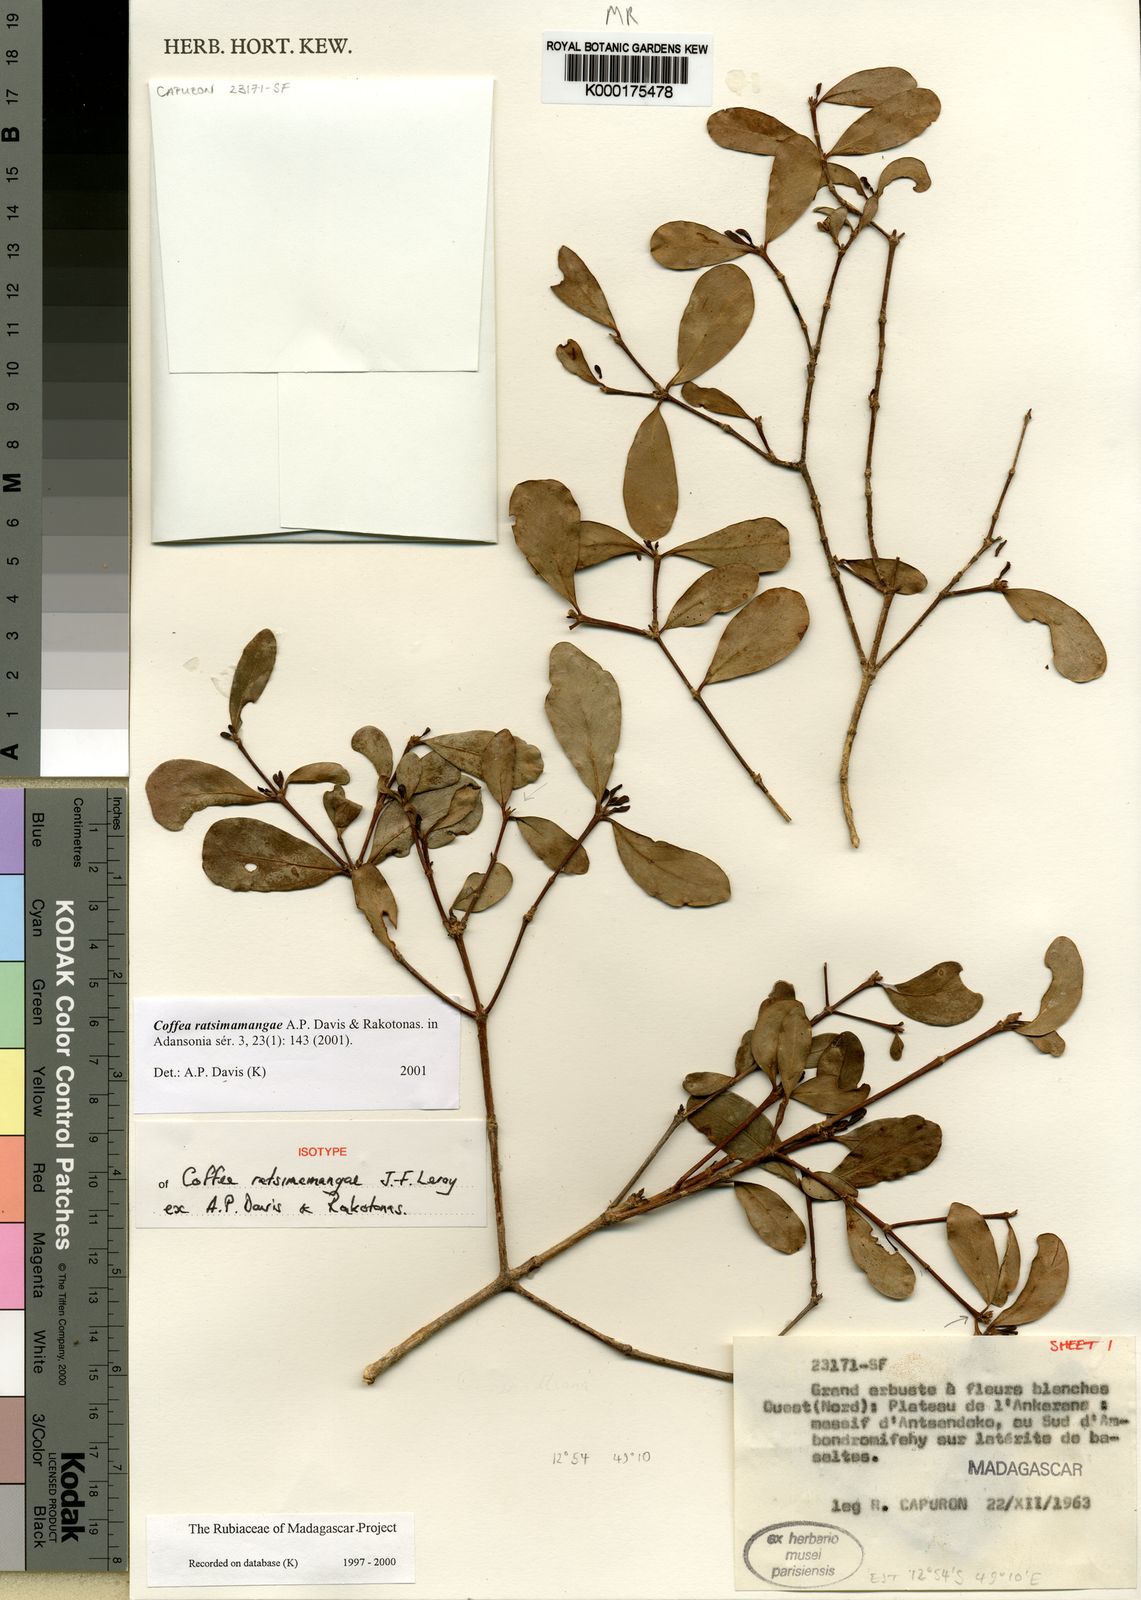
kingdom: Plantae
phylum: Tracheophyta
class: Magnoliopsida
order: Gentianales
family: Rubiaceae
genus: Coffea
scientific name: Coffea ratsimamangae
